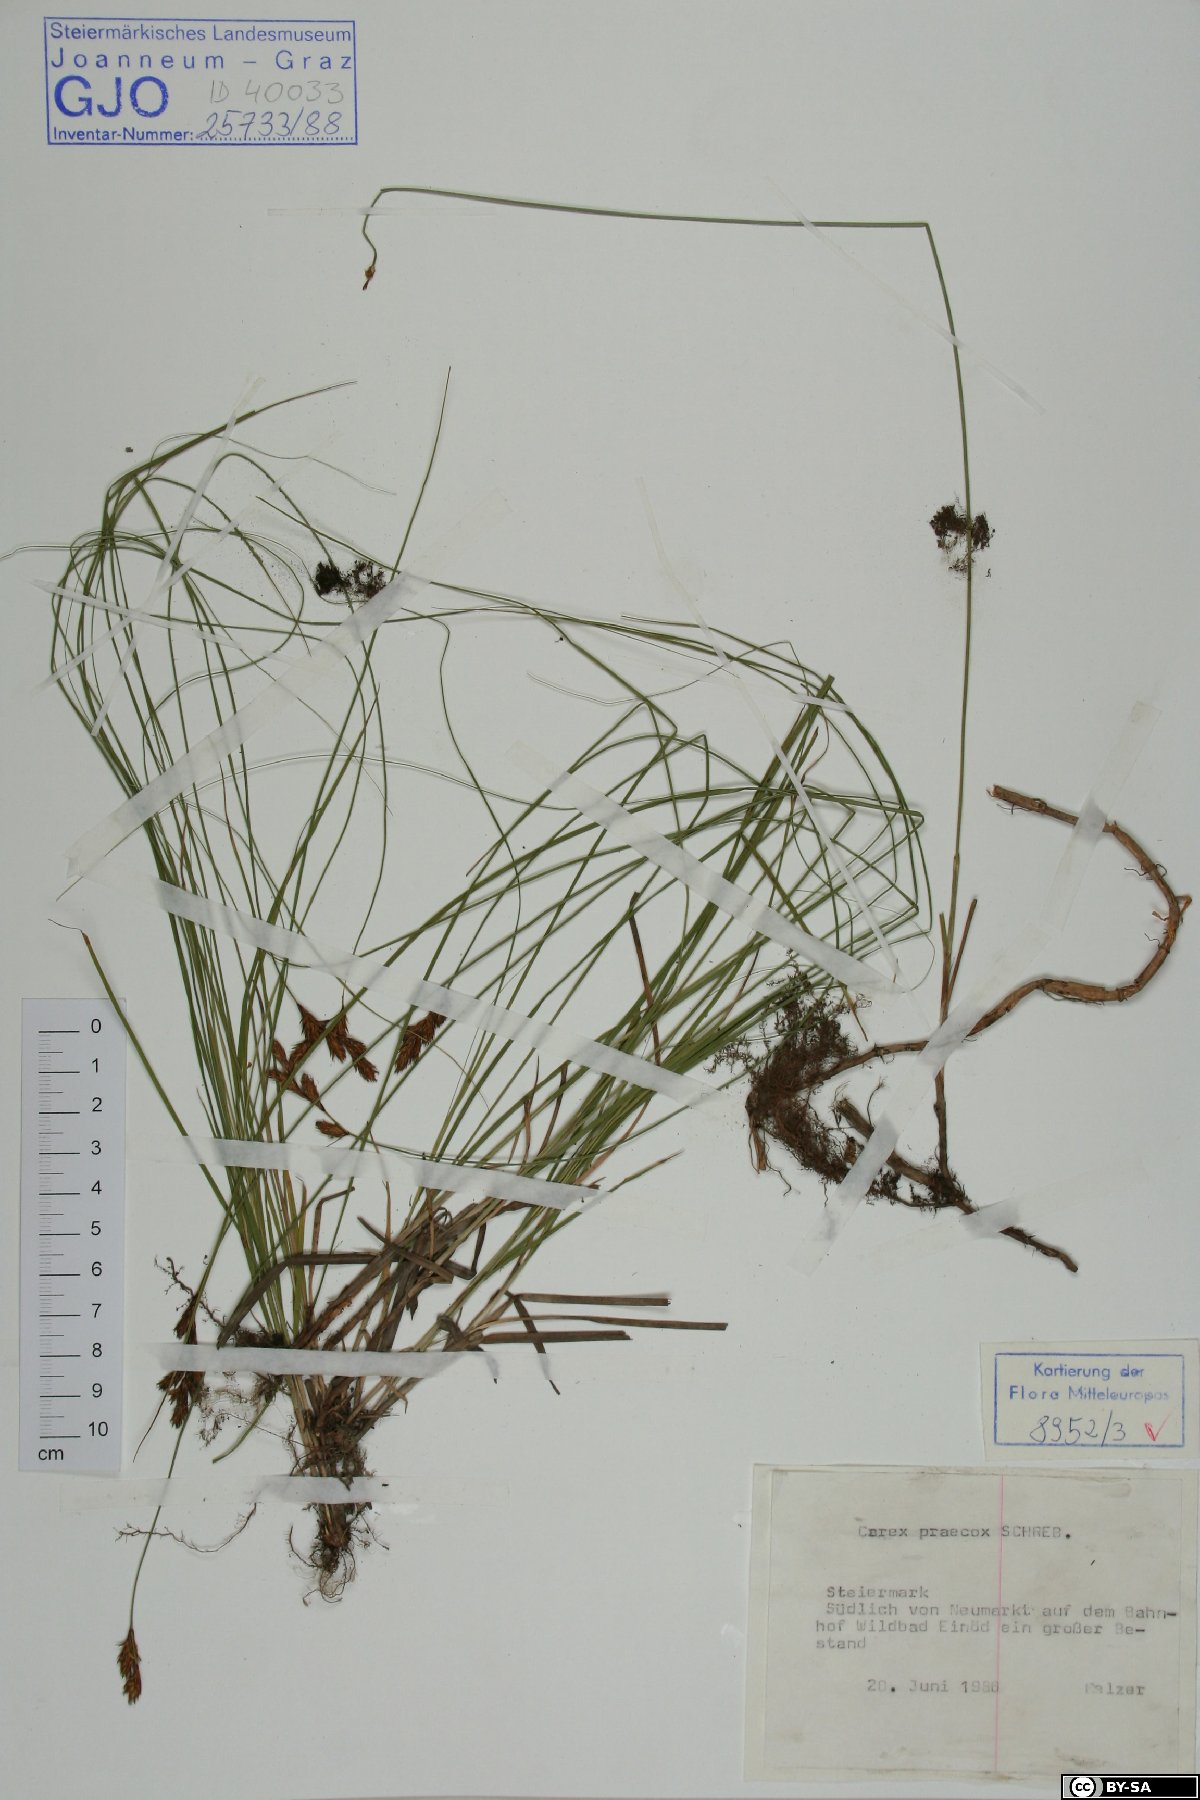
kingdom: Plantae
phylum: Tracheophyta
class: Liliopsida
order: Poales
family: Cyperaceae
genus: Carex
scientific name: Carex praecox
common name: Early sedge
